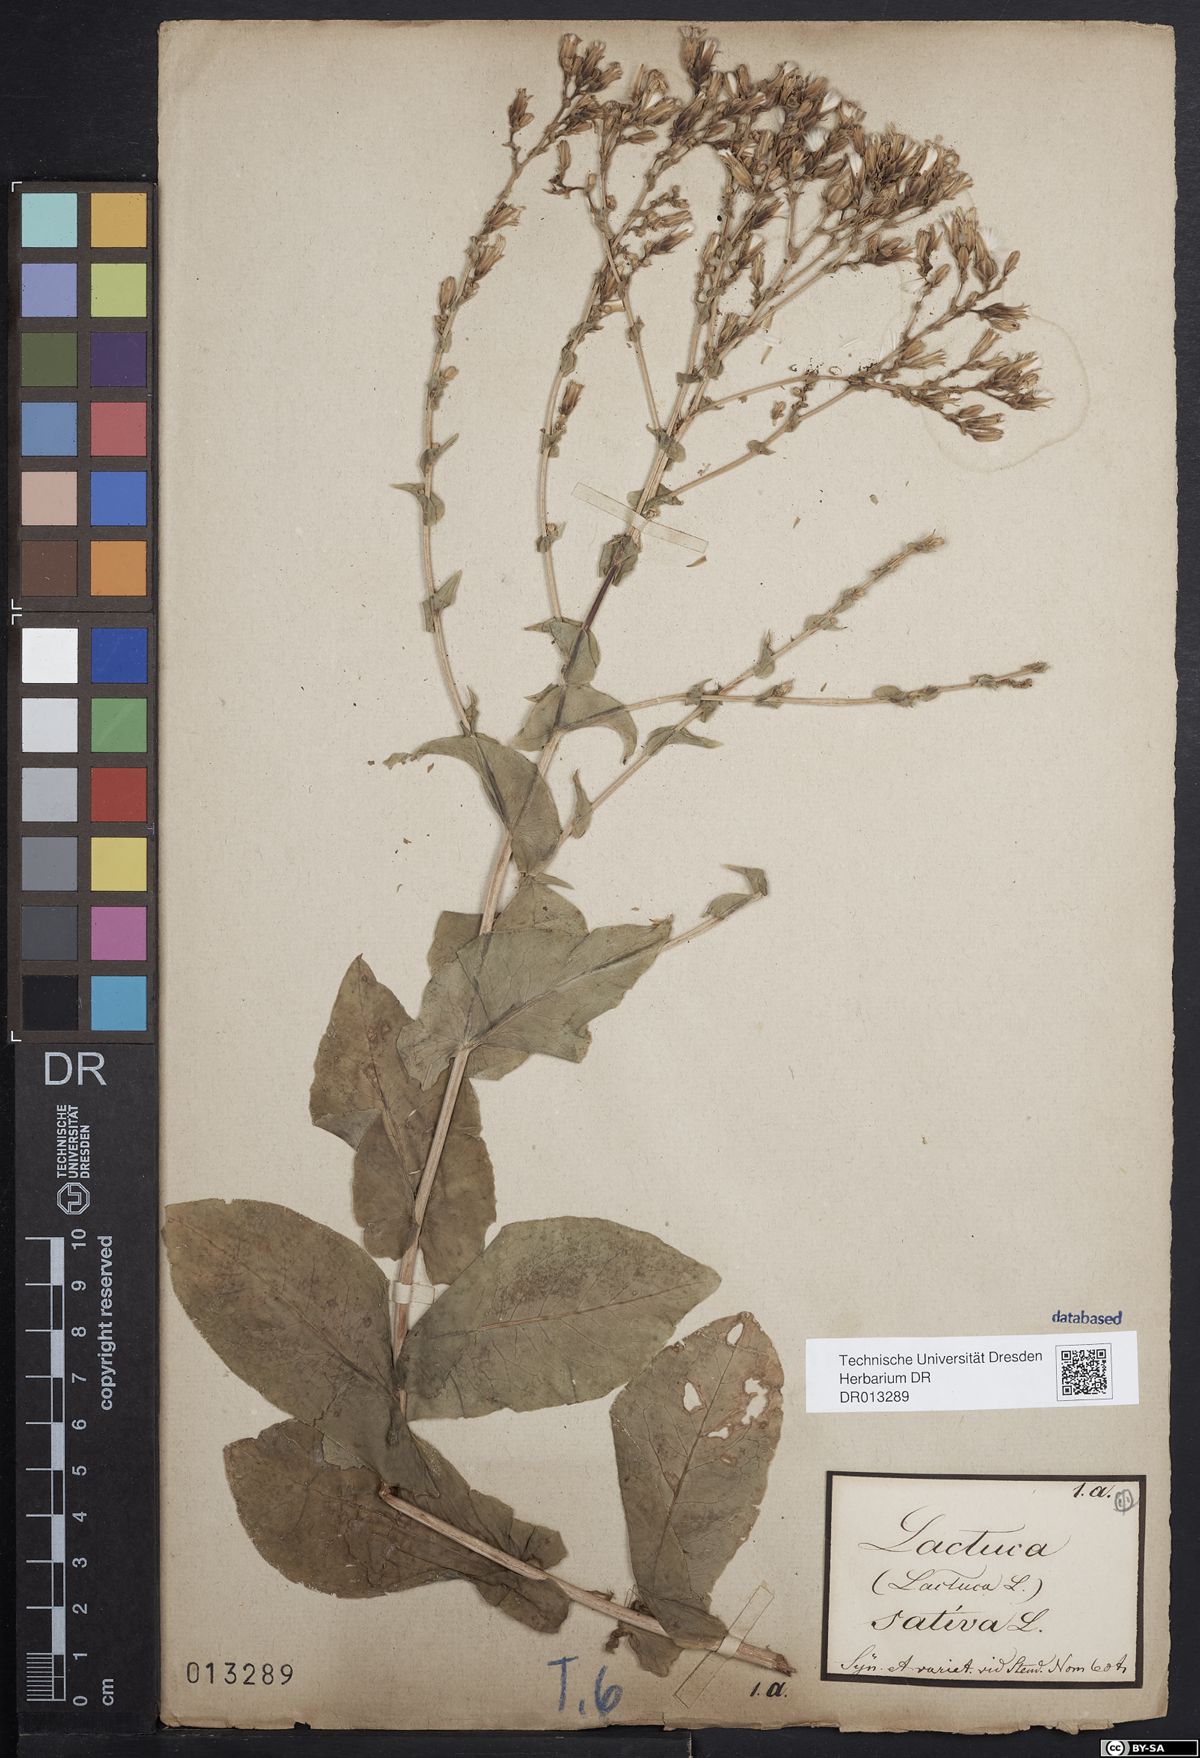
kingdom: Plantae
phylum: Tracheophyta
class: Magnoliopsida
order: Asterales
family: Asteraceae
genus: Lactuca
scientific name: Lactuca sativa
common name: Garden lettuce
